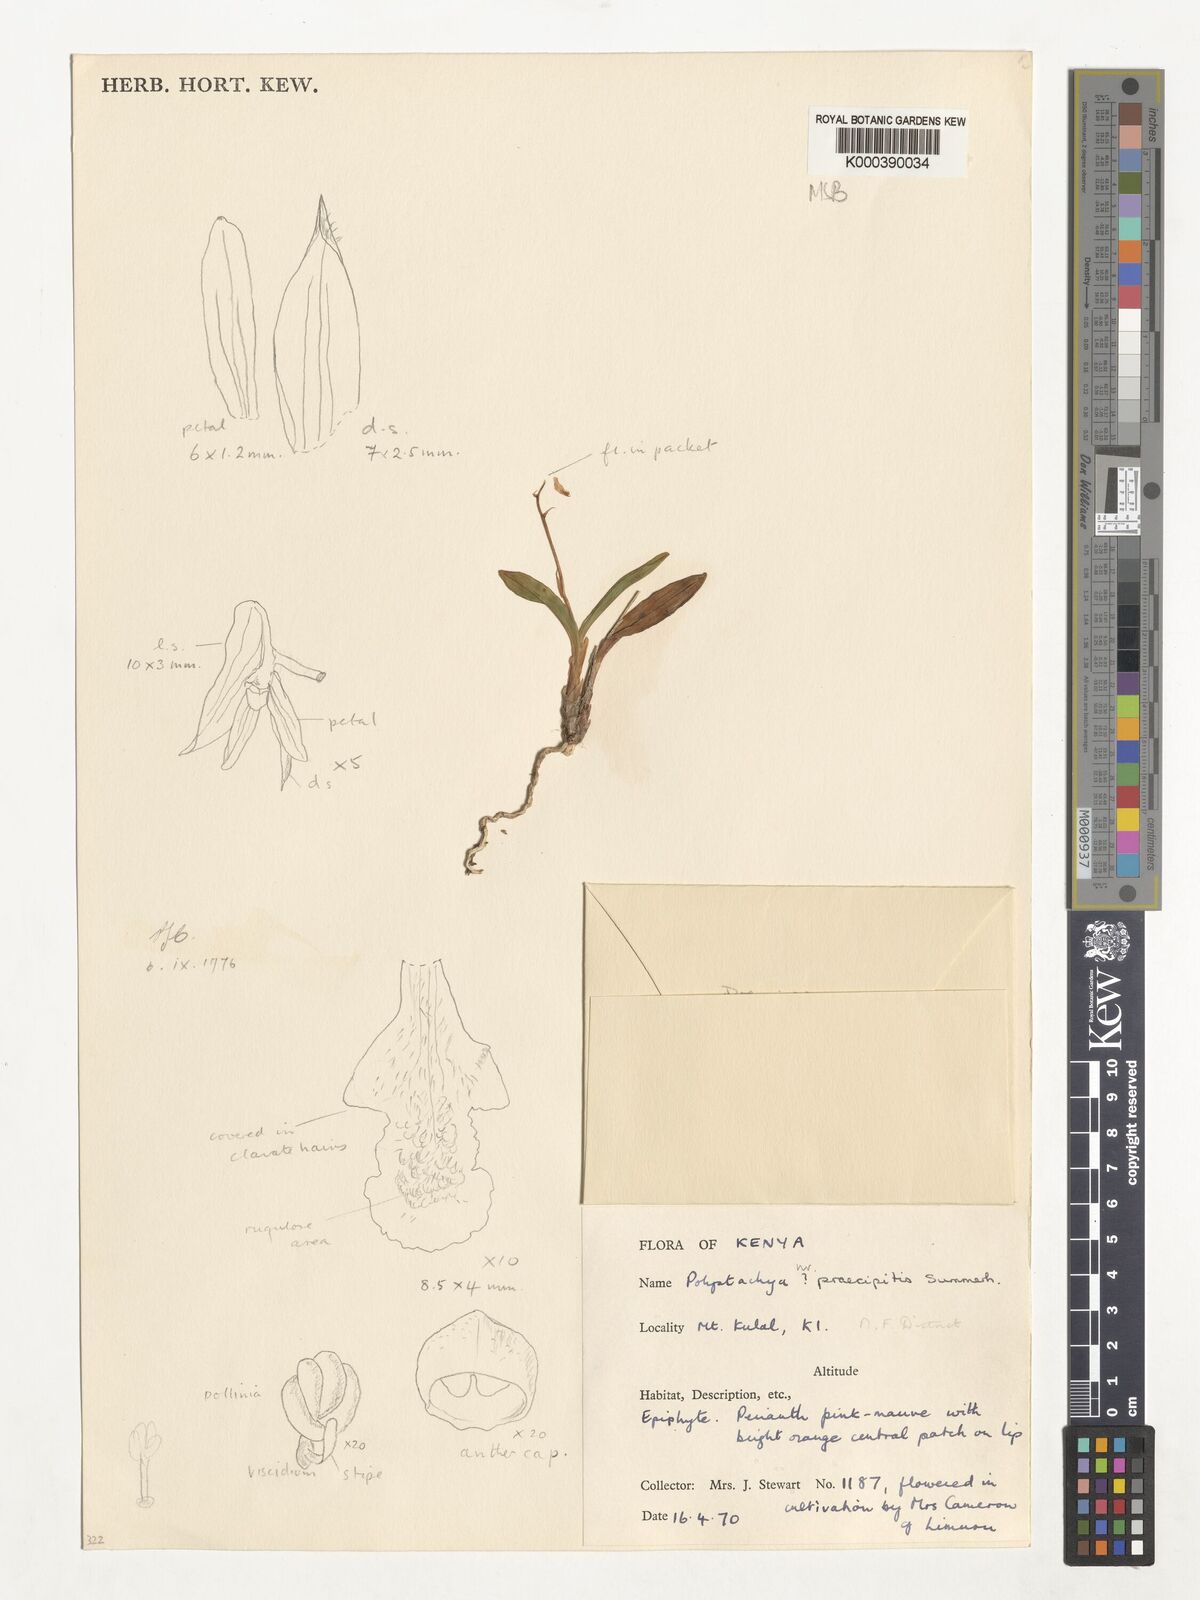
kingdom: Plantae
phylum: Tracheophyta
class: Liliopsida
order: Asparagales
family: Orchidaceae
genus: Polystachya
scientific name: Polystachya confusa
